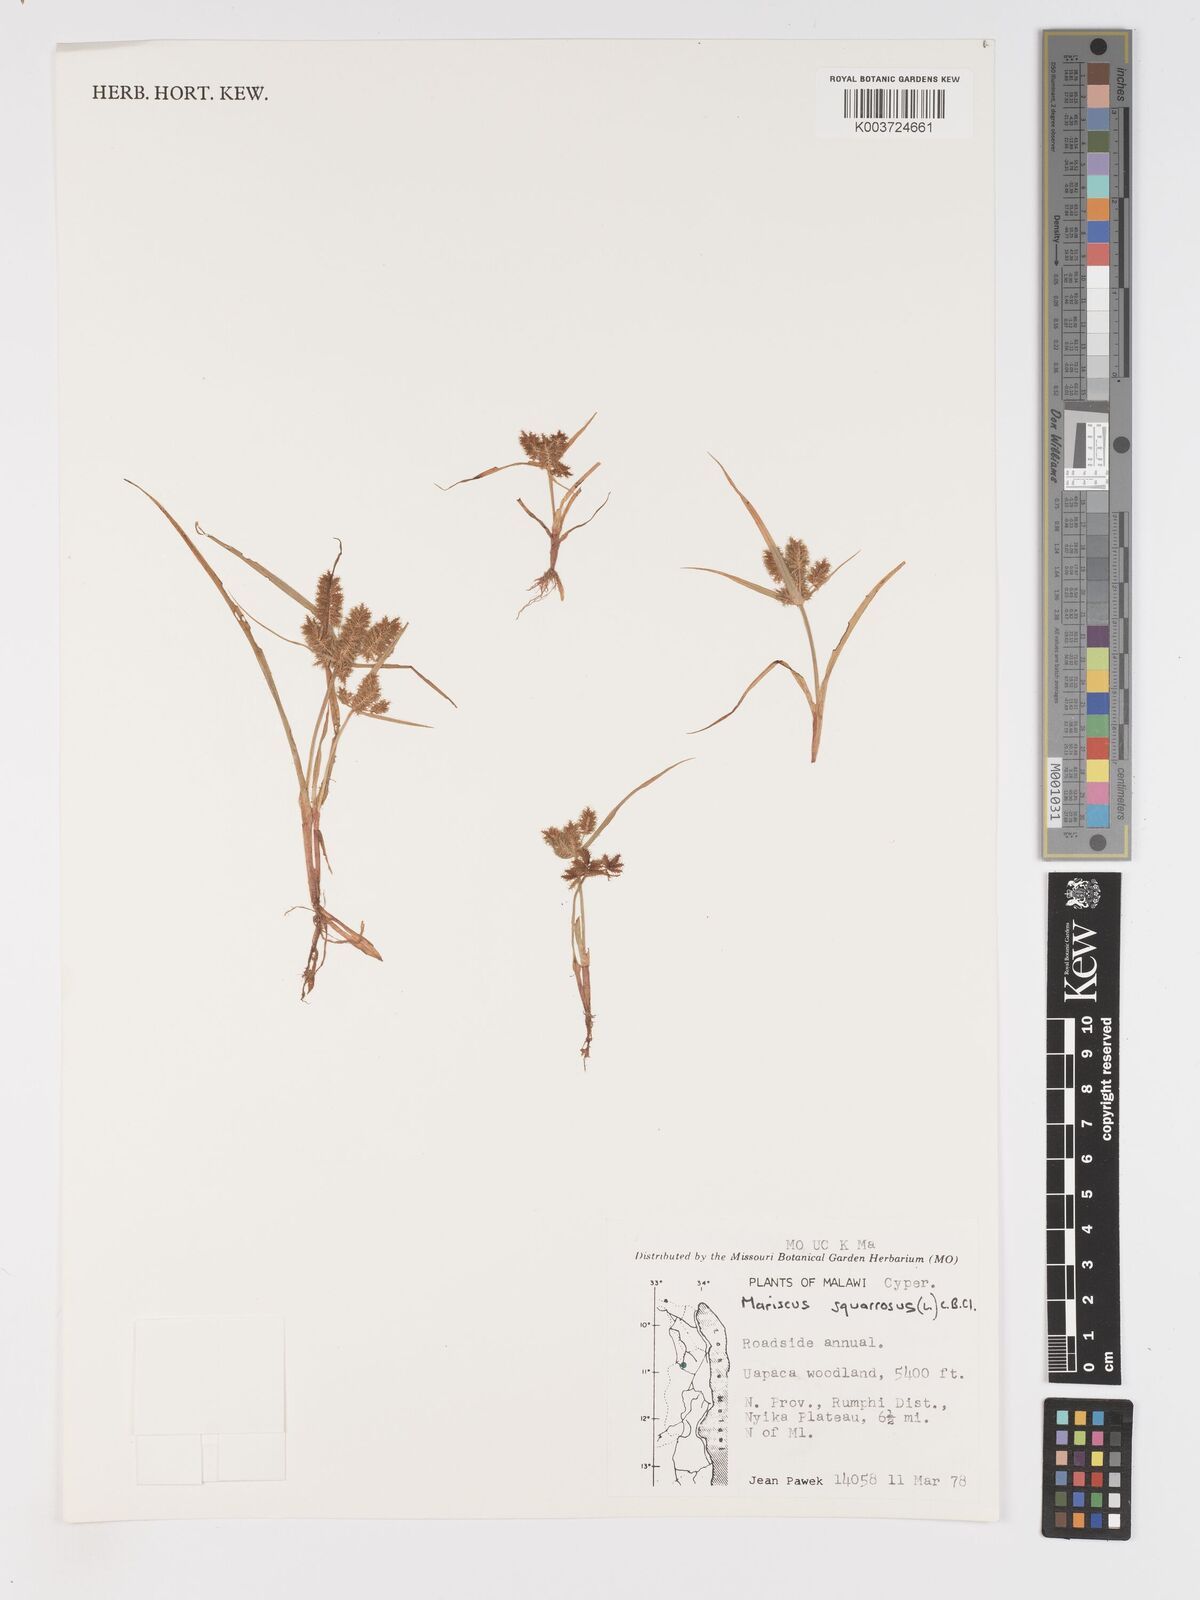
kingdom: Plantae
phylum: Tracheophyta
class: Liliopsida
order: Poales
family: Cyperaceae
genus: Cyperus
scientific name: Cyperus squarrosus
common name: Awned cyperus
